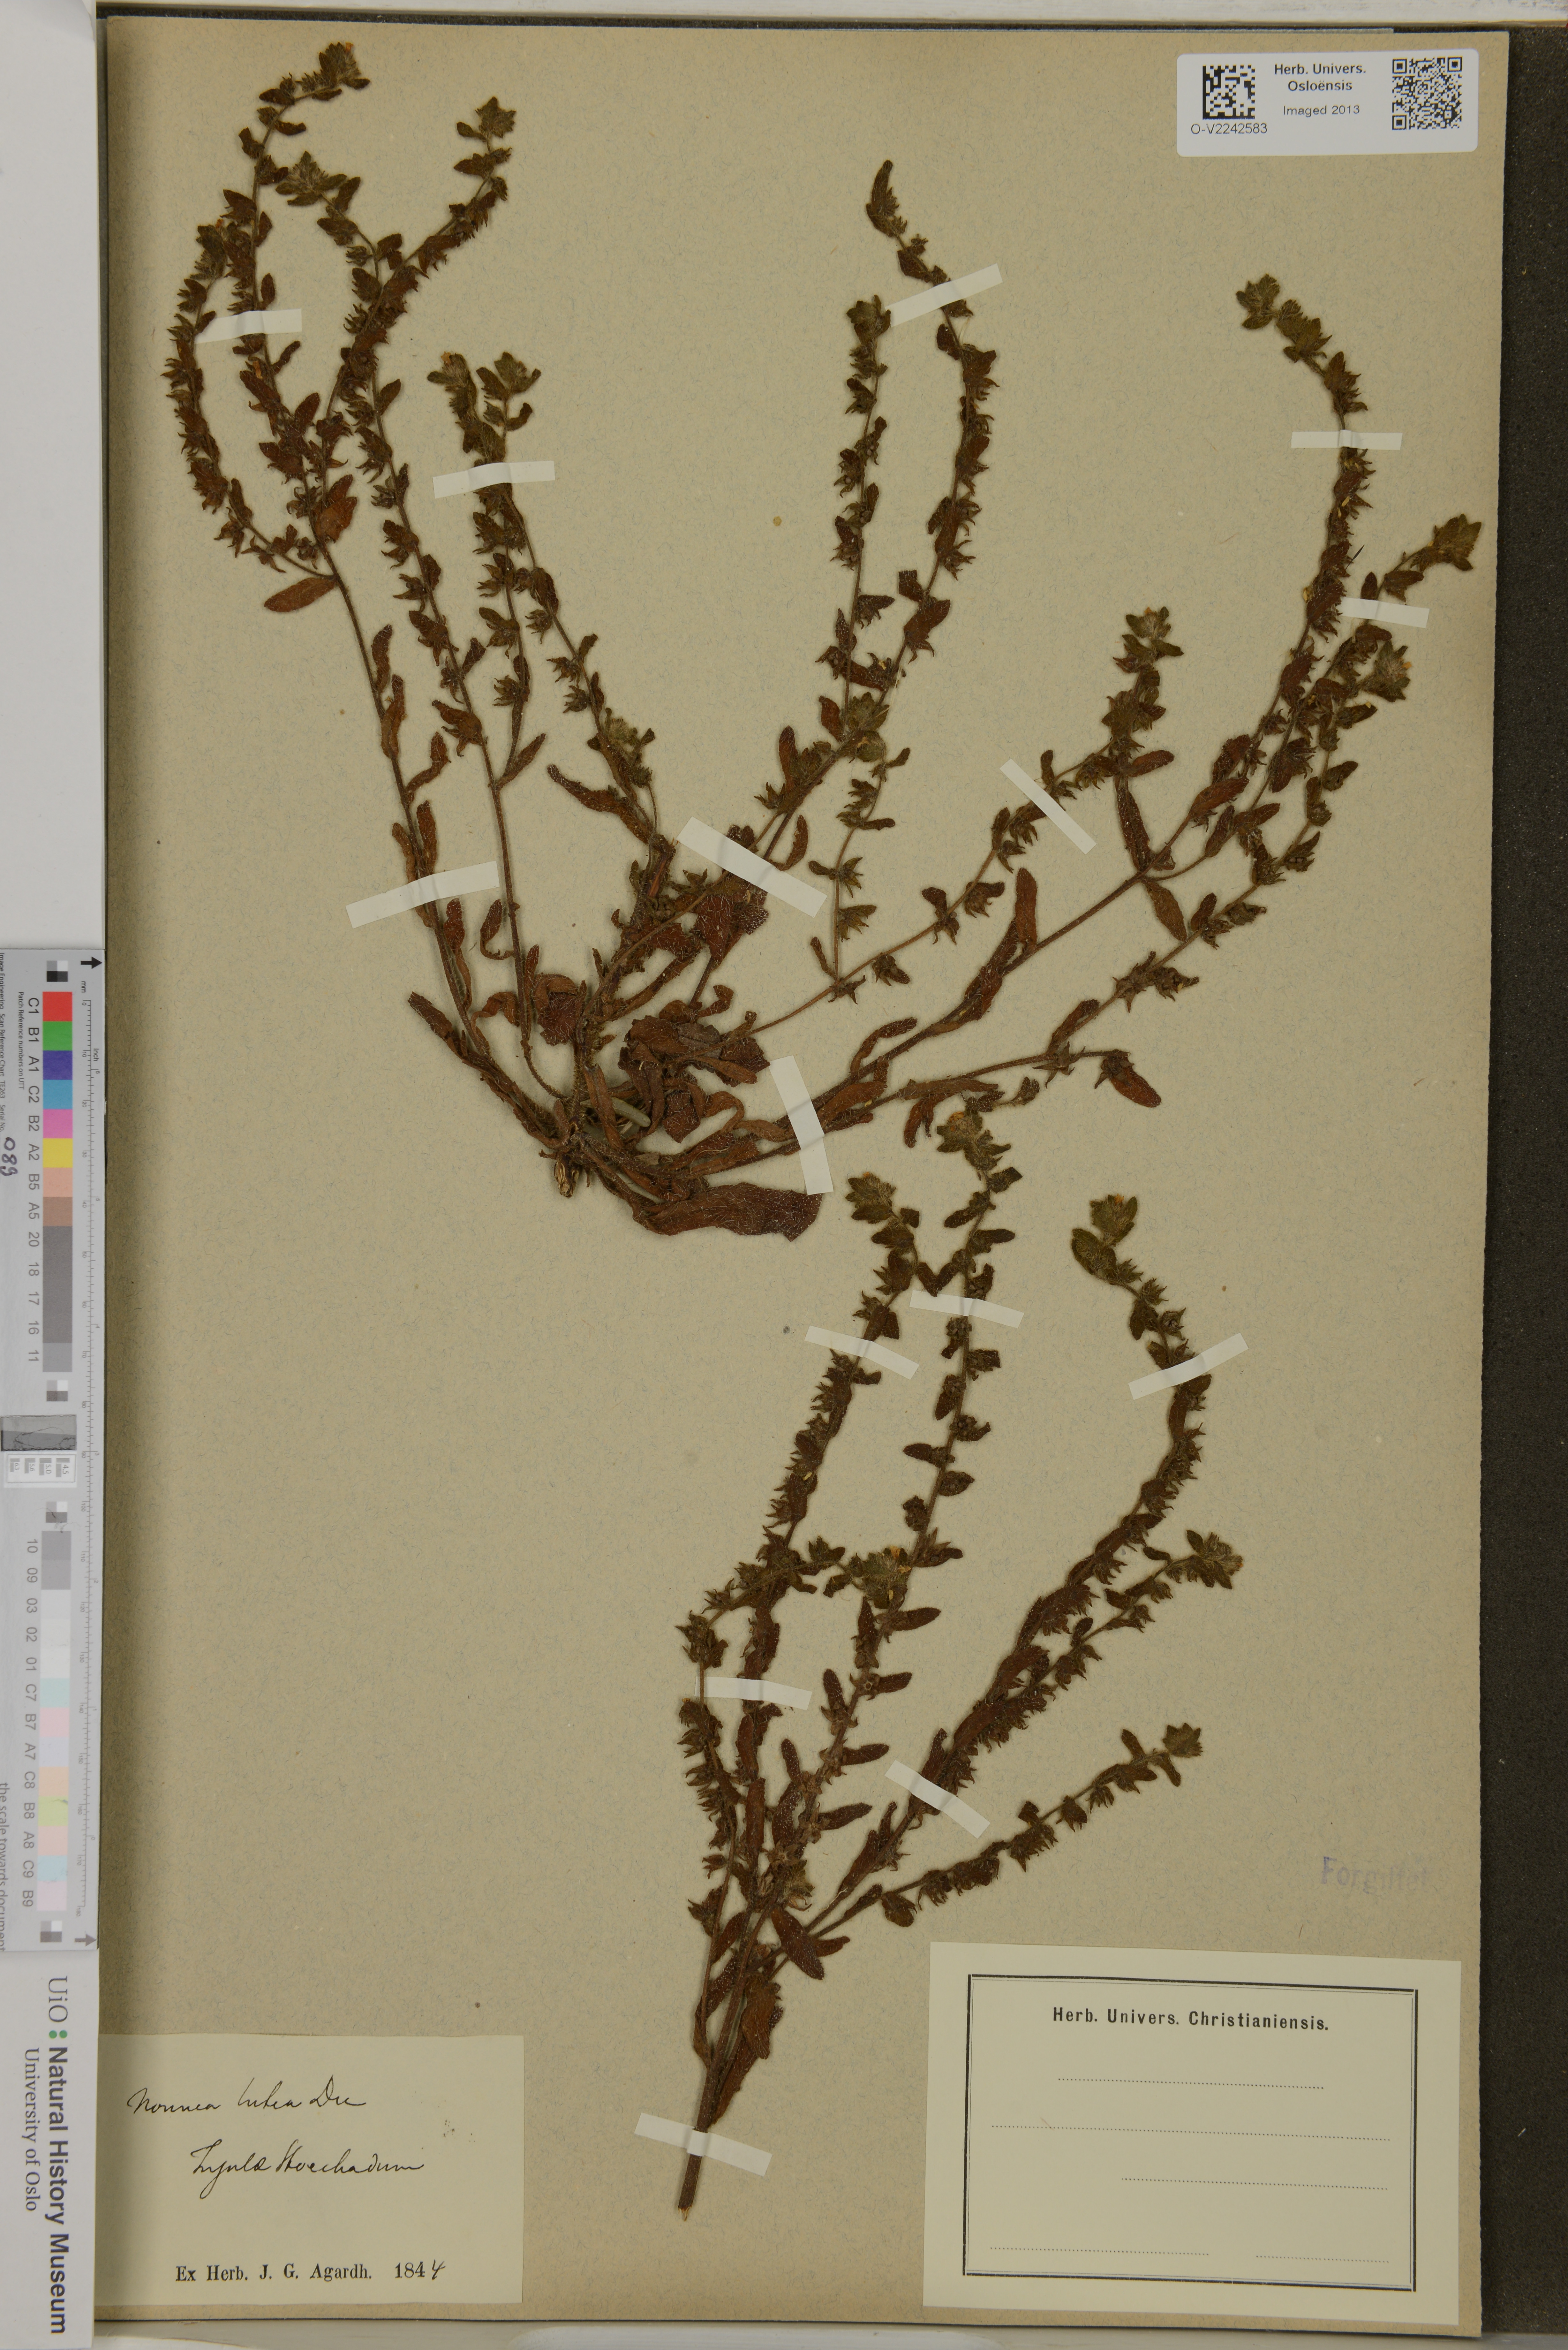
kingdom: Plantae
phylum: Tracheophyta
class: Magnoliopsida
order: Boraginales
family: Boraginaceae
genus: Nonea
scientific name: Nonea lutea
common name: Yellow nonea
